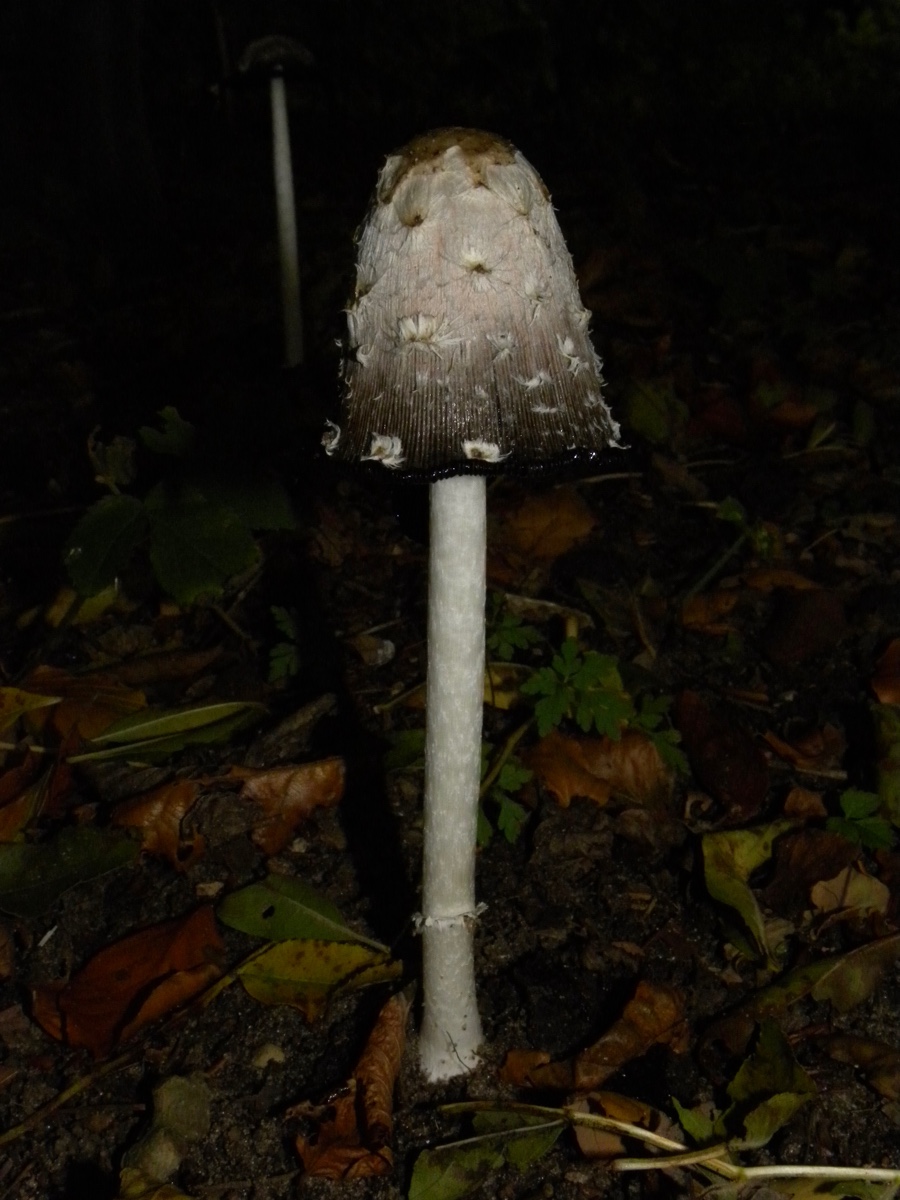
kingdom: Fungi
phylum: Basidiomycota
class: Agaricomycetes
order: Agaricales
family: Psathyrellaceae
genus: Coprinopsis
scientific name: Coprinopsis picacea
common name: skade-blækhat
